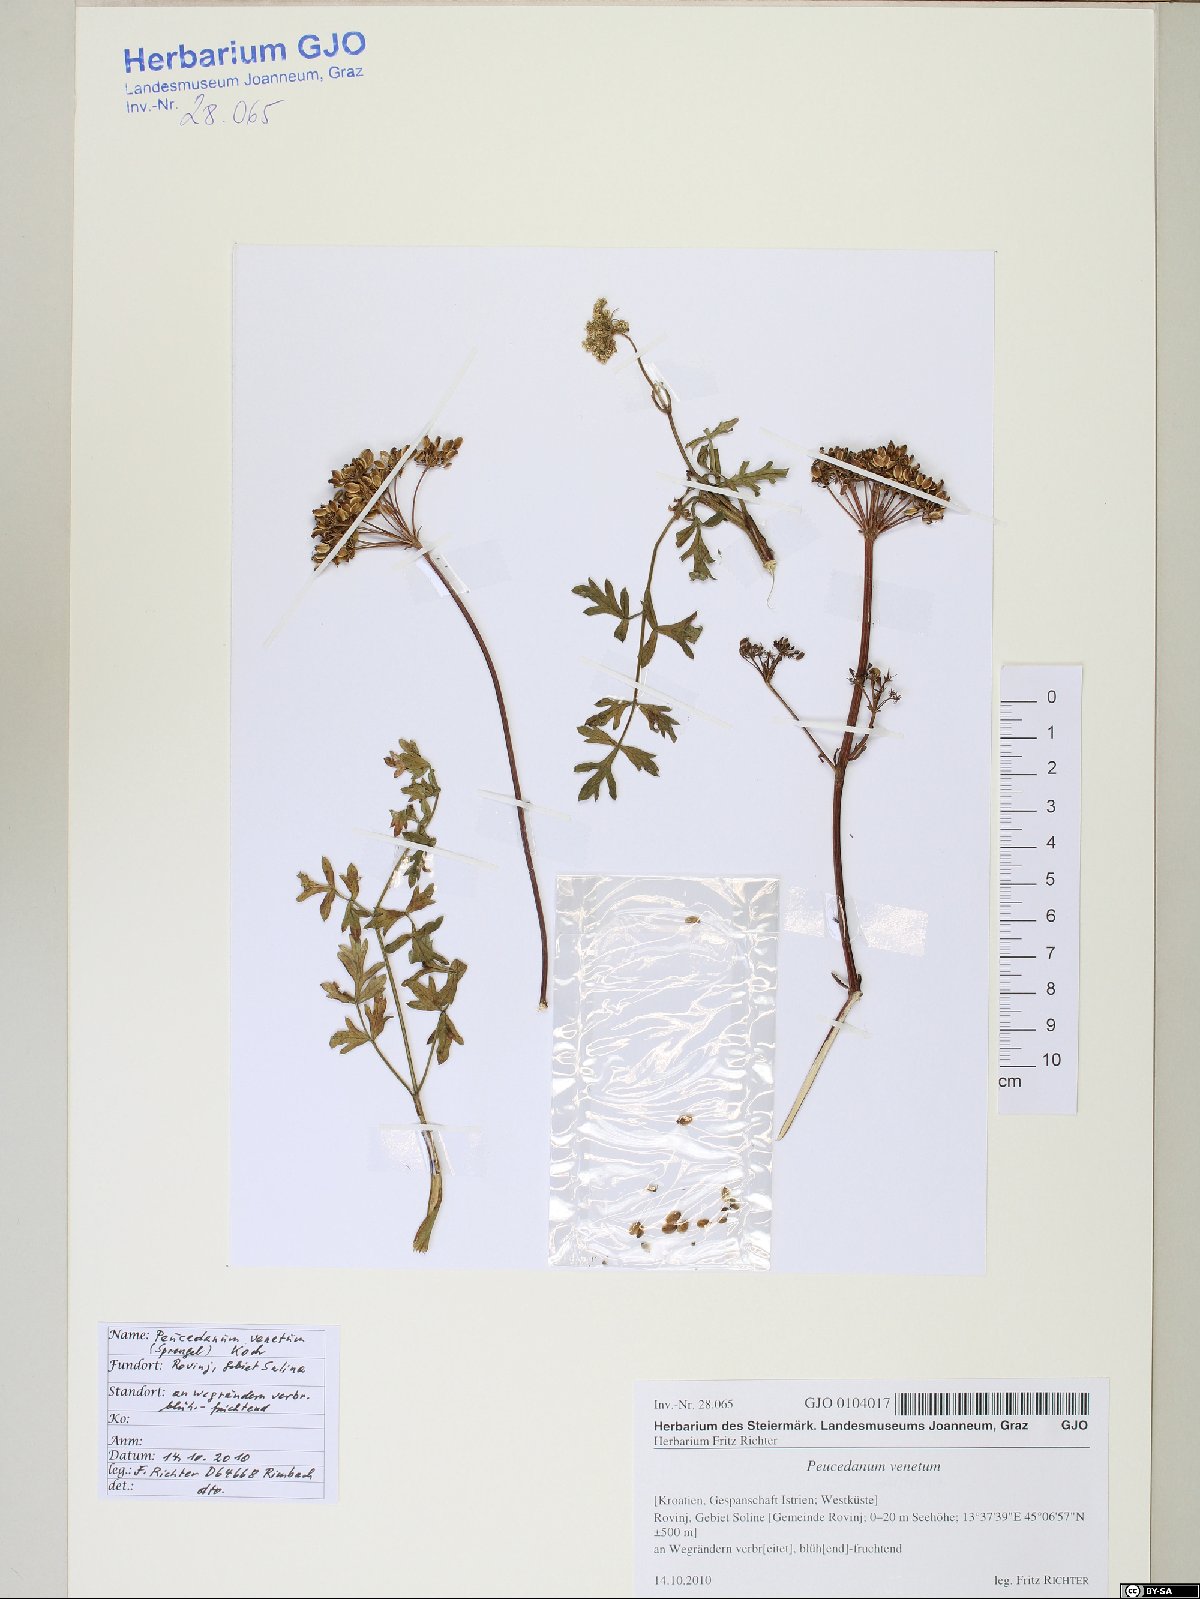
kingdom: Plantae
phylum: Tracheophyta
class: Magnoliopsida
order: Apiales
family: Apiaceae
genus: Xanthoselinum
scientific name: Xanthoselinum alsaticum
